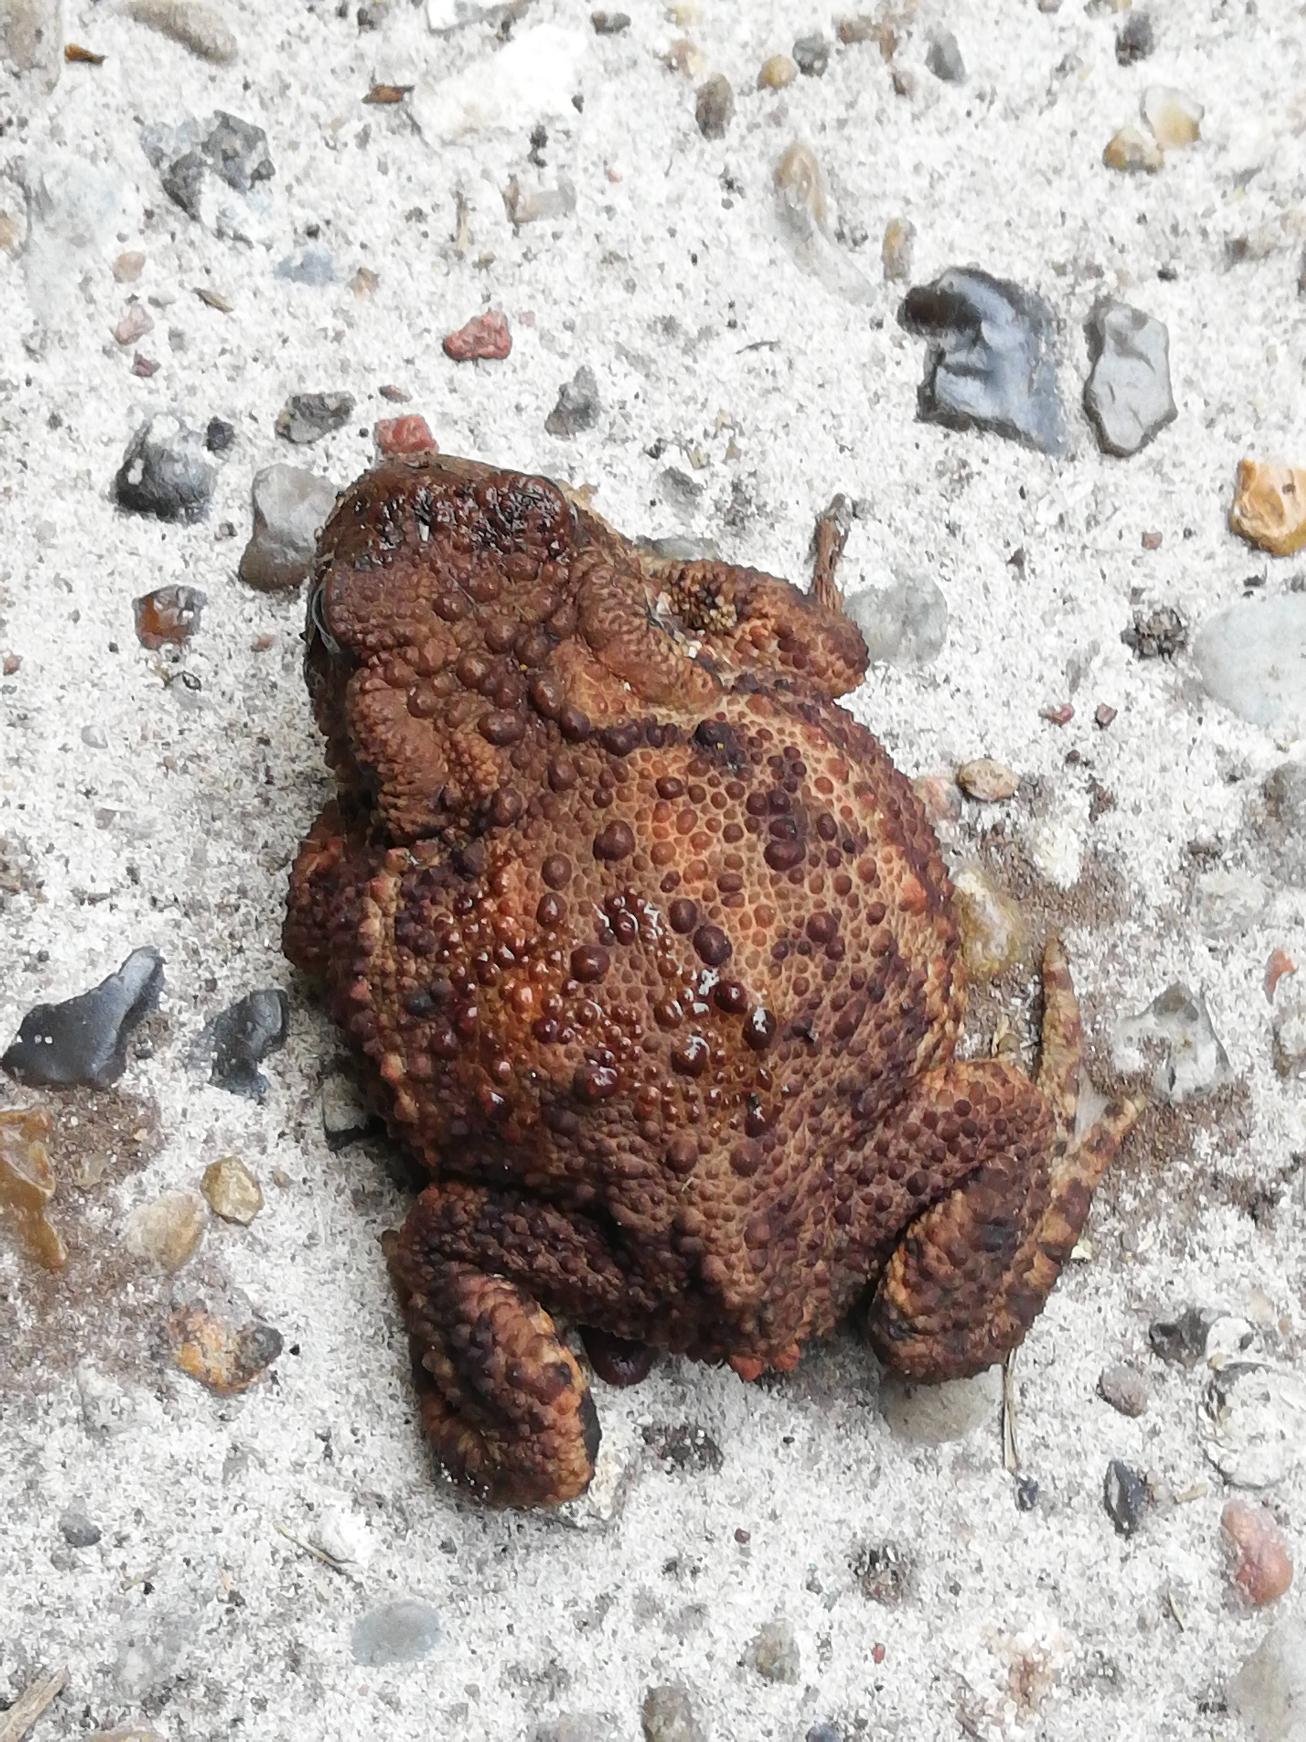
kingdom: Animalia
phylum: Chordata
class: Amphibia
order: Anura
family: Bufonidae
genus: Bufo
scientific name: Bufo bufo
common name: Skrubtudse
